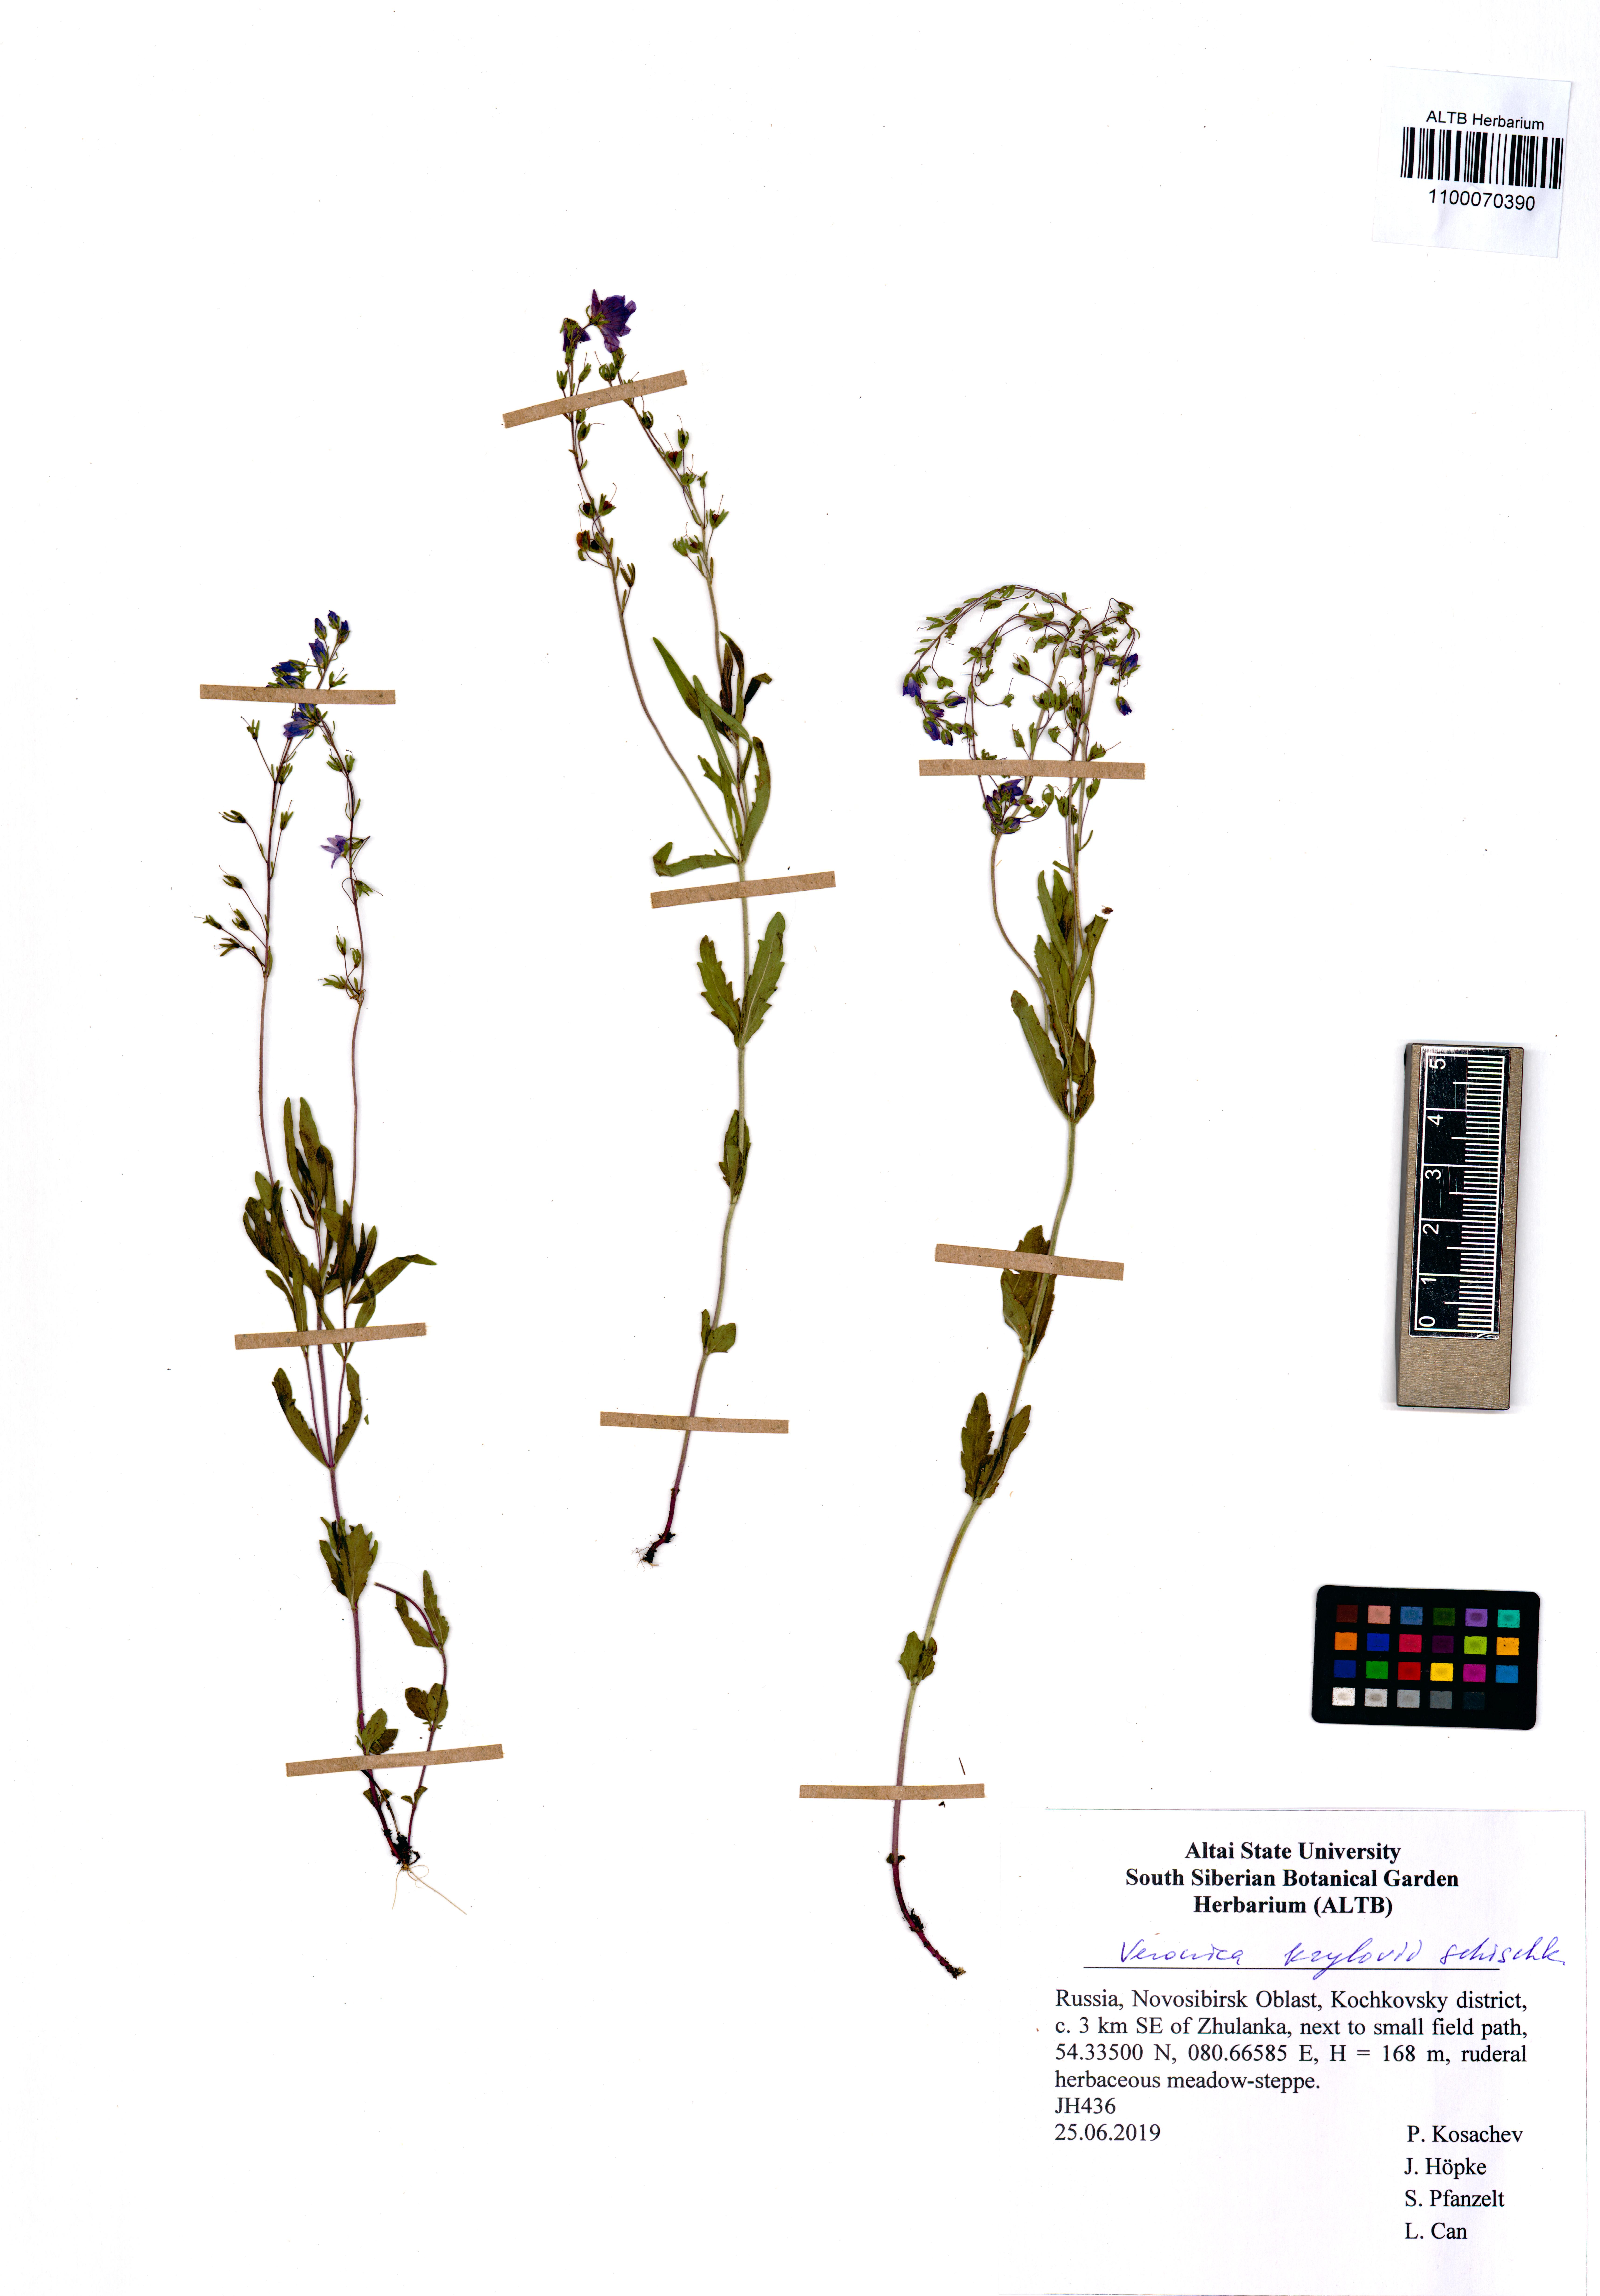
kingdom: Plantae
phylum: Tracheophyta
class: Magnoliopsida
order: Lamiales
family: Plantaginaceae
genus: Veronica
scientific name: Veronica krylovii
